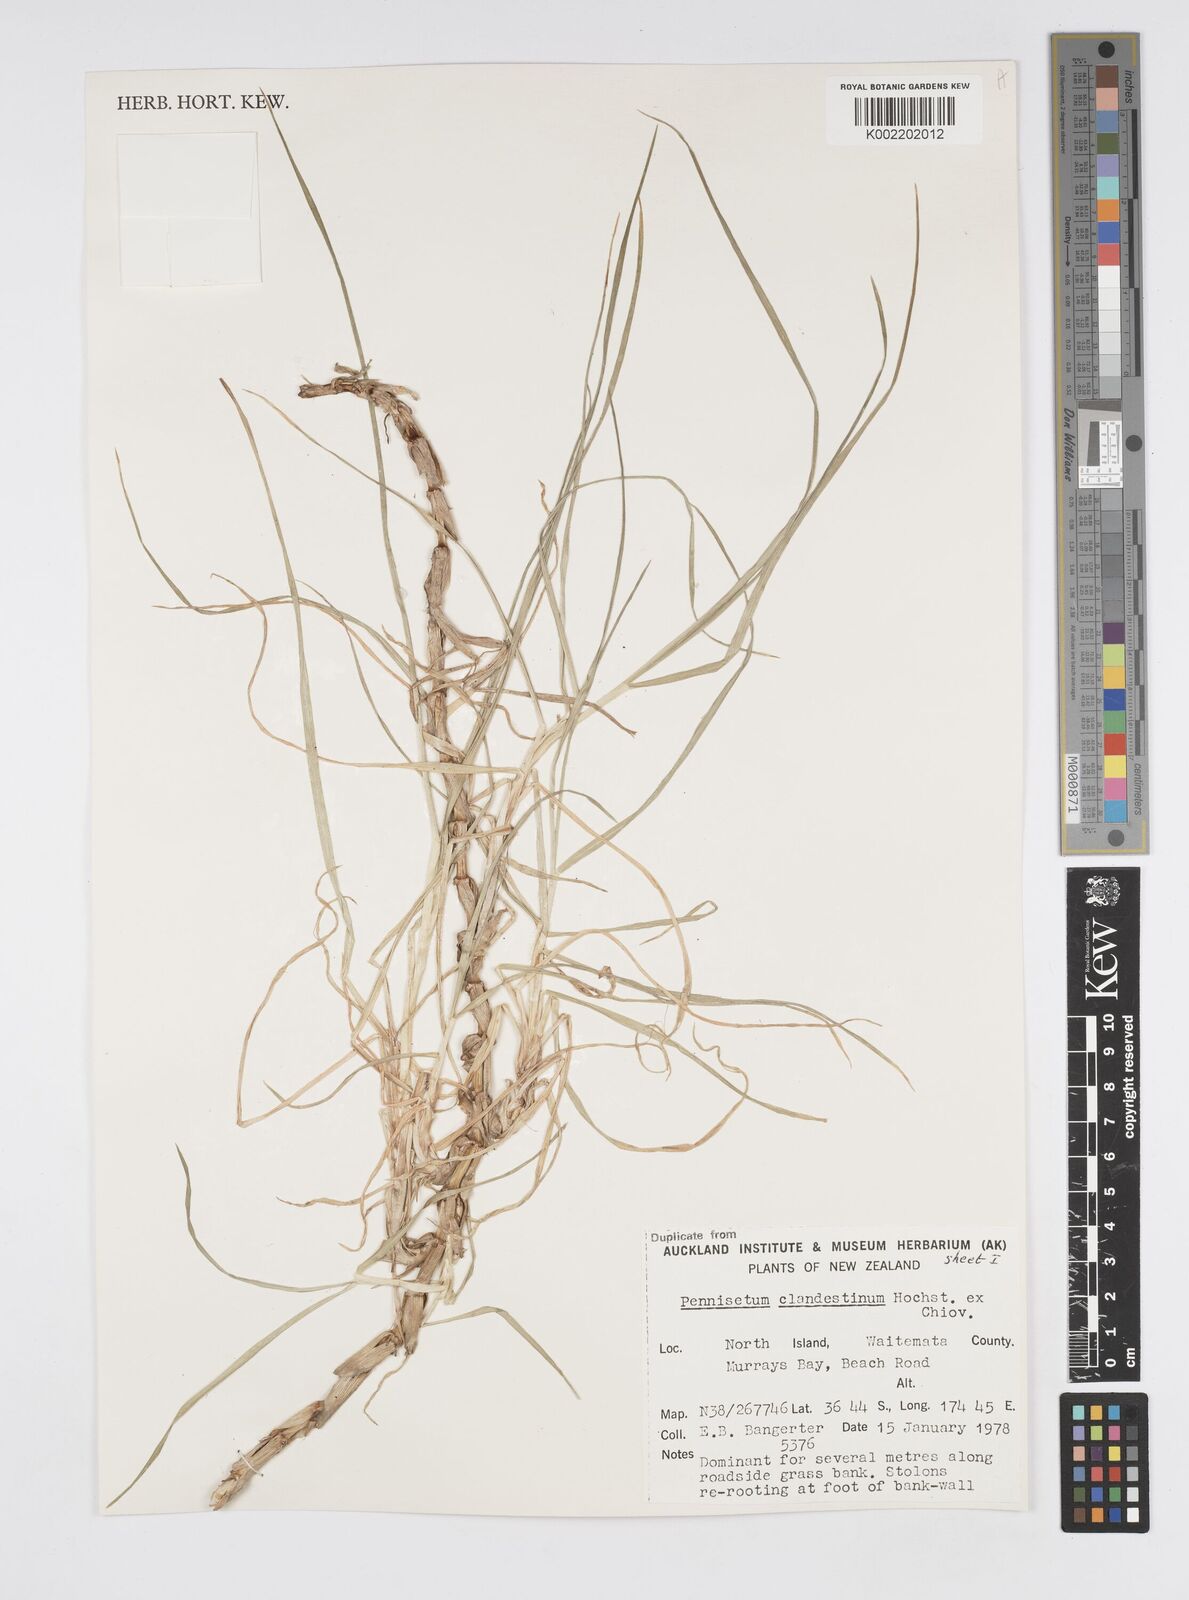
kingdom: Plantae
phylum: Tracheophyta
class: Liliopsida
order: Poales
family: Poaceae
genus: Cenchrus
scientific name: Cenchrus clandestinus
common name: Kikuyugrass
